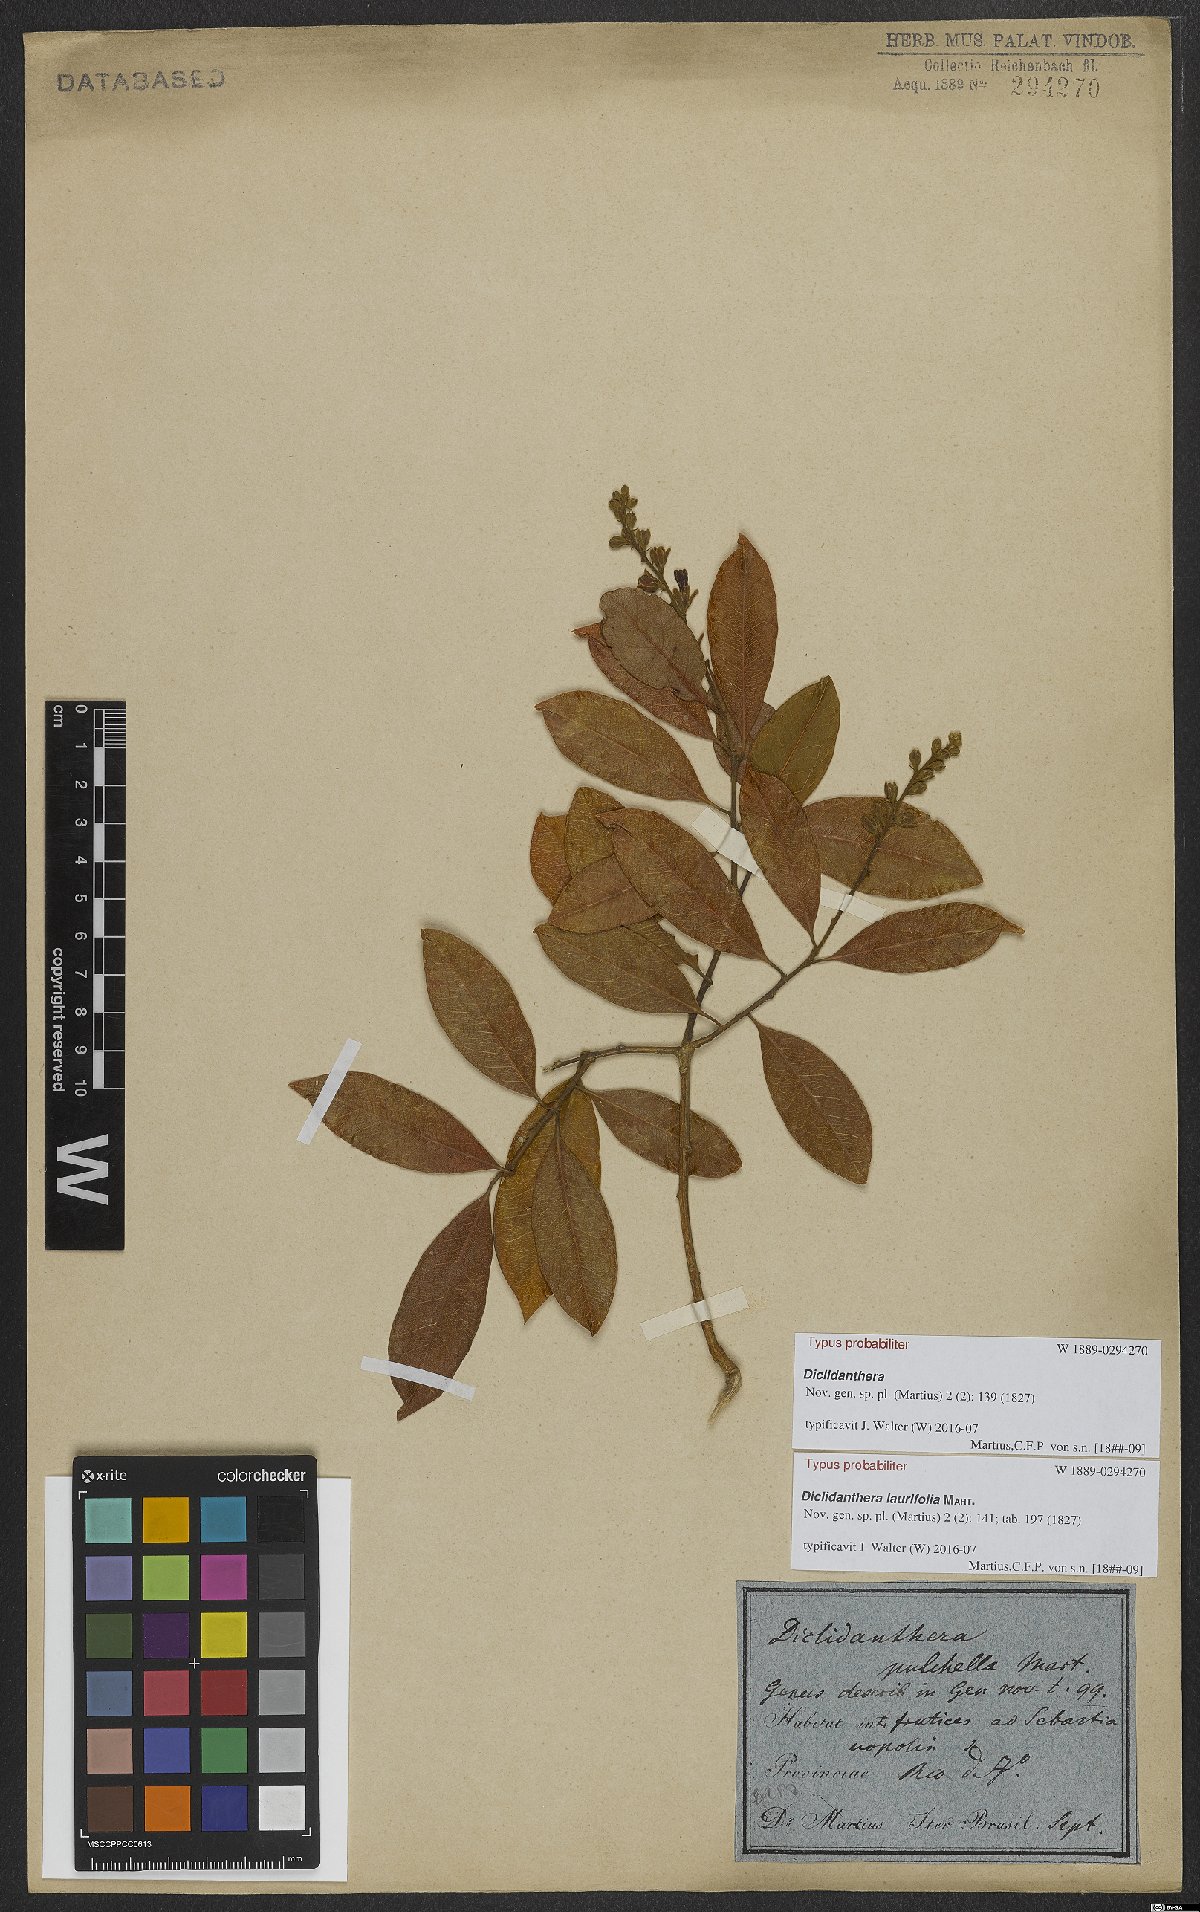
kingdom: Plantae
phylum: Tracheophyta
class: Magnoliopsida
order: Fabales
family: Polygalaceae
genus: Diclidanthera
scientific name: Diclidanthera laurifolia
